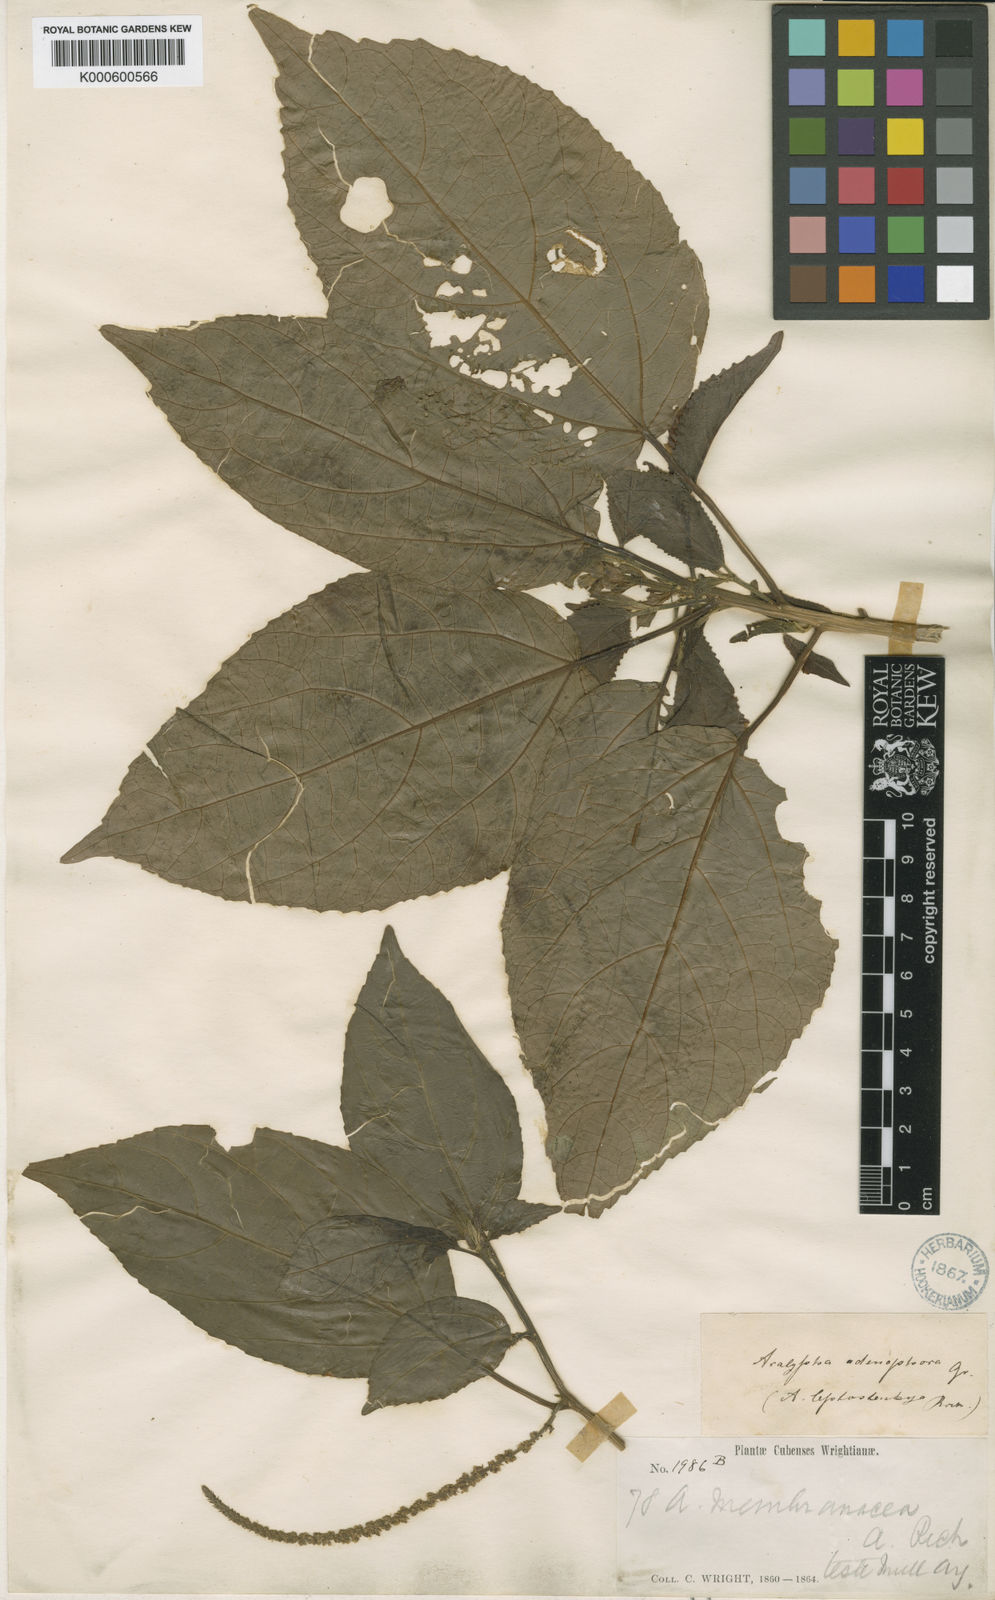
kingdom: Plantae
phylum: Tracheophyta
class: Magnoliopsida
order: Malpighiales
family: Euphorbiaceae
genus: Acalypha
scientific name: Acalypha membranacea
